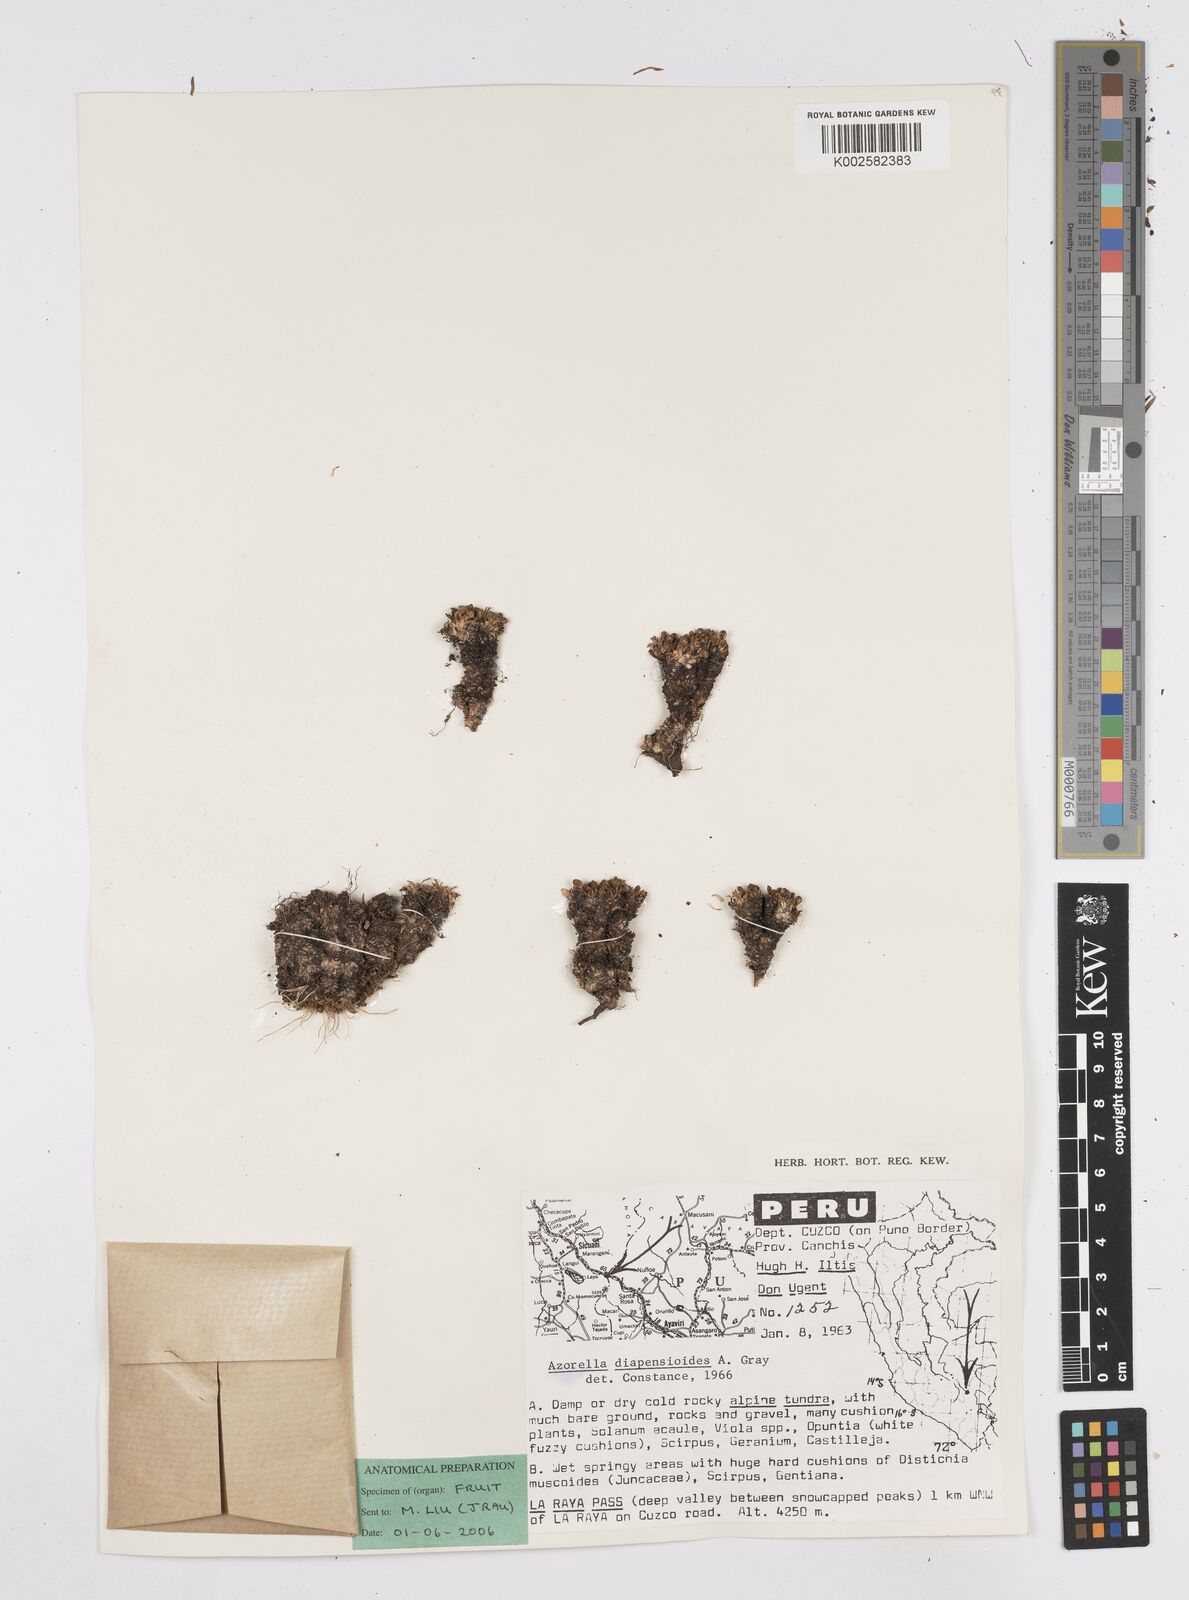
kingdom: Plantae
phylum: Tracheophyta
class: Magnoliopsida
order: Apiales
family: Apiaceae
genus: Azorella
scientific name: Azorella diapensioides
